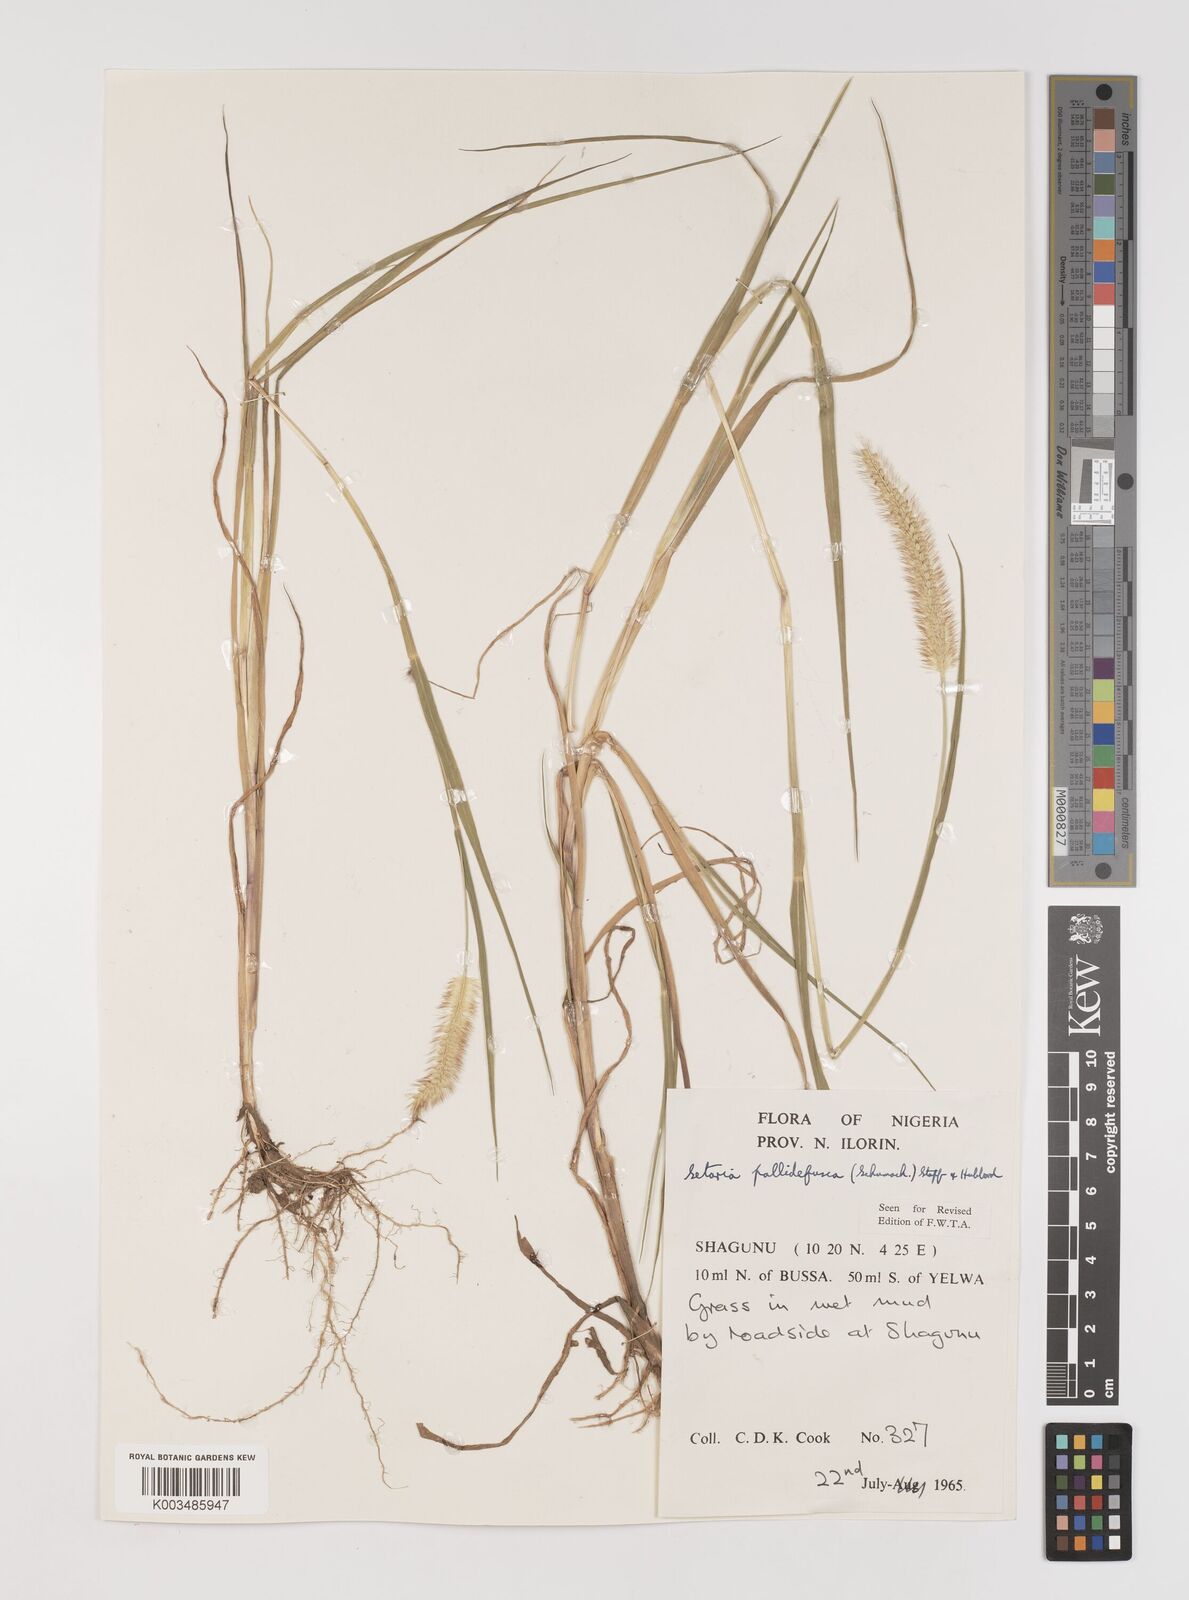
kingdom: Plantae
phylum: Tracheophyta
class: Liliopsida
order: Poales
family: Poaceae
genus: Setaria
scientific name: Setaria pumila
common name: Yellow bristle-grass
